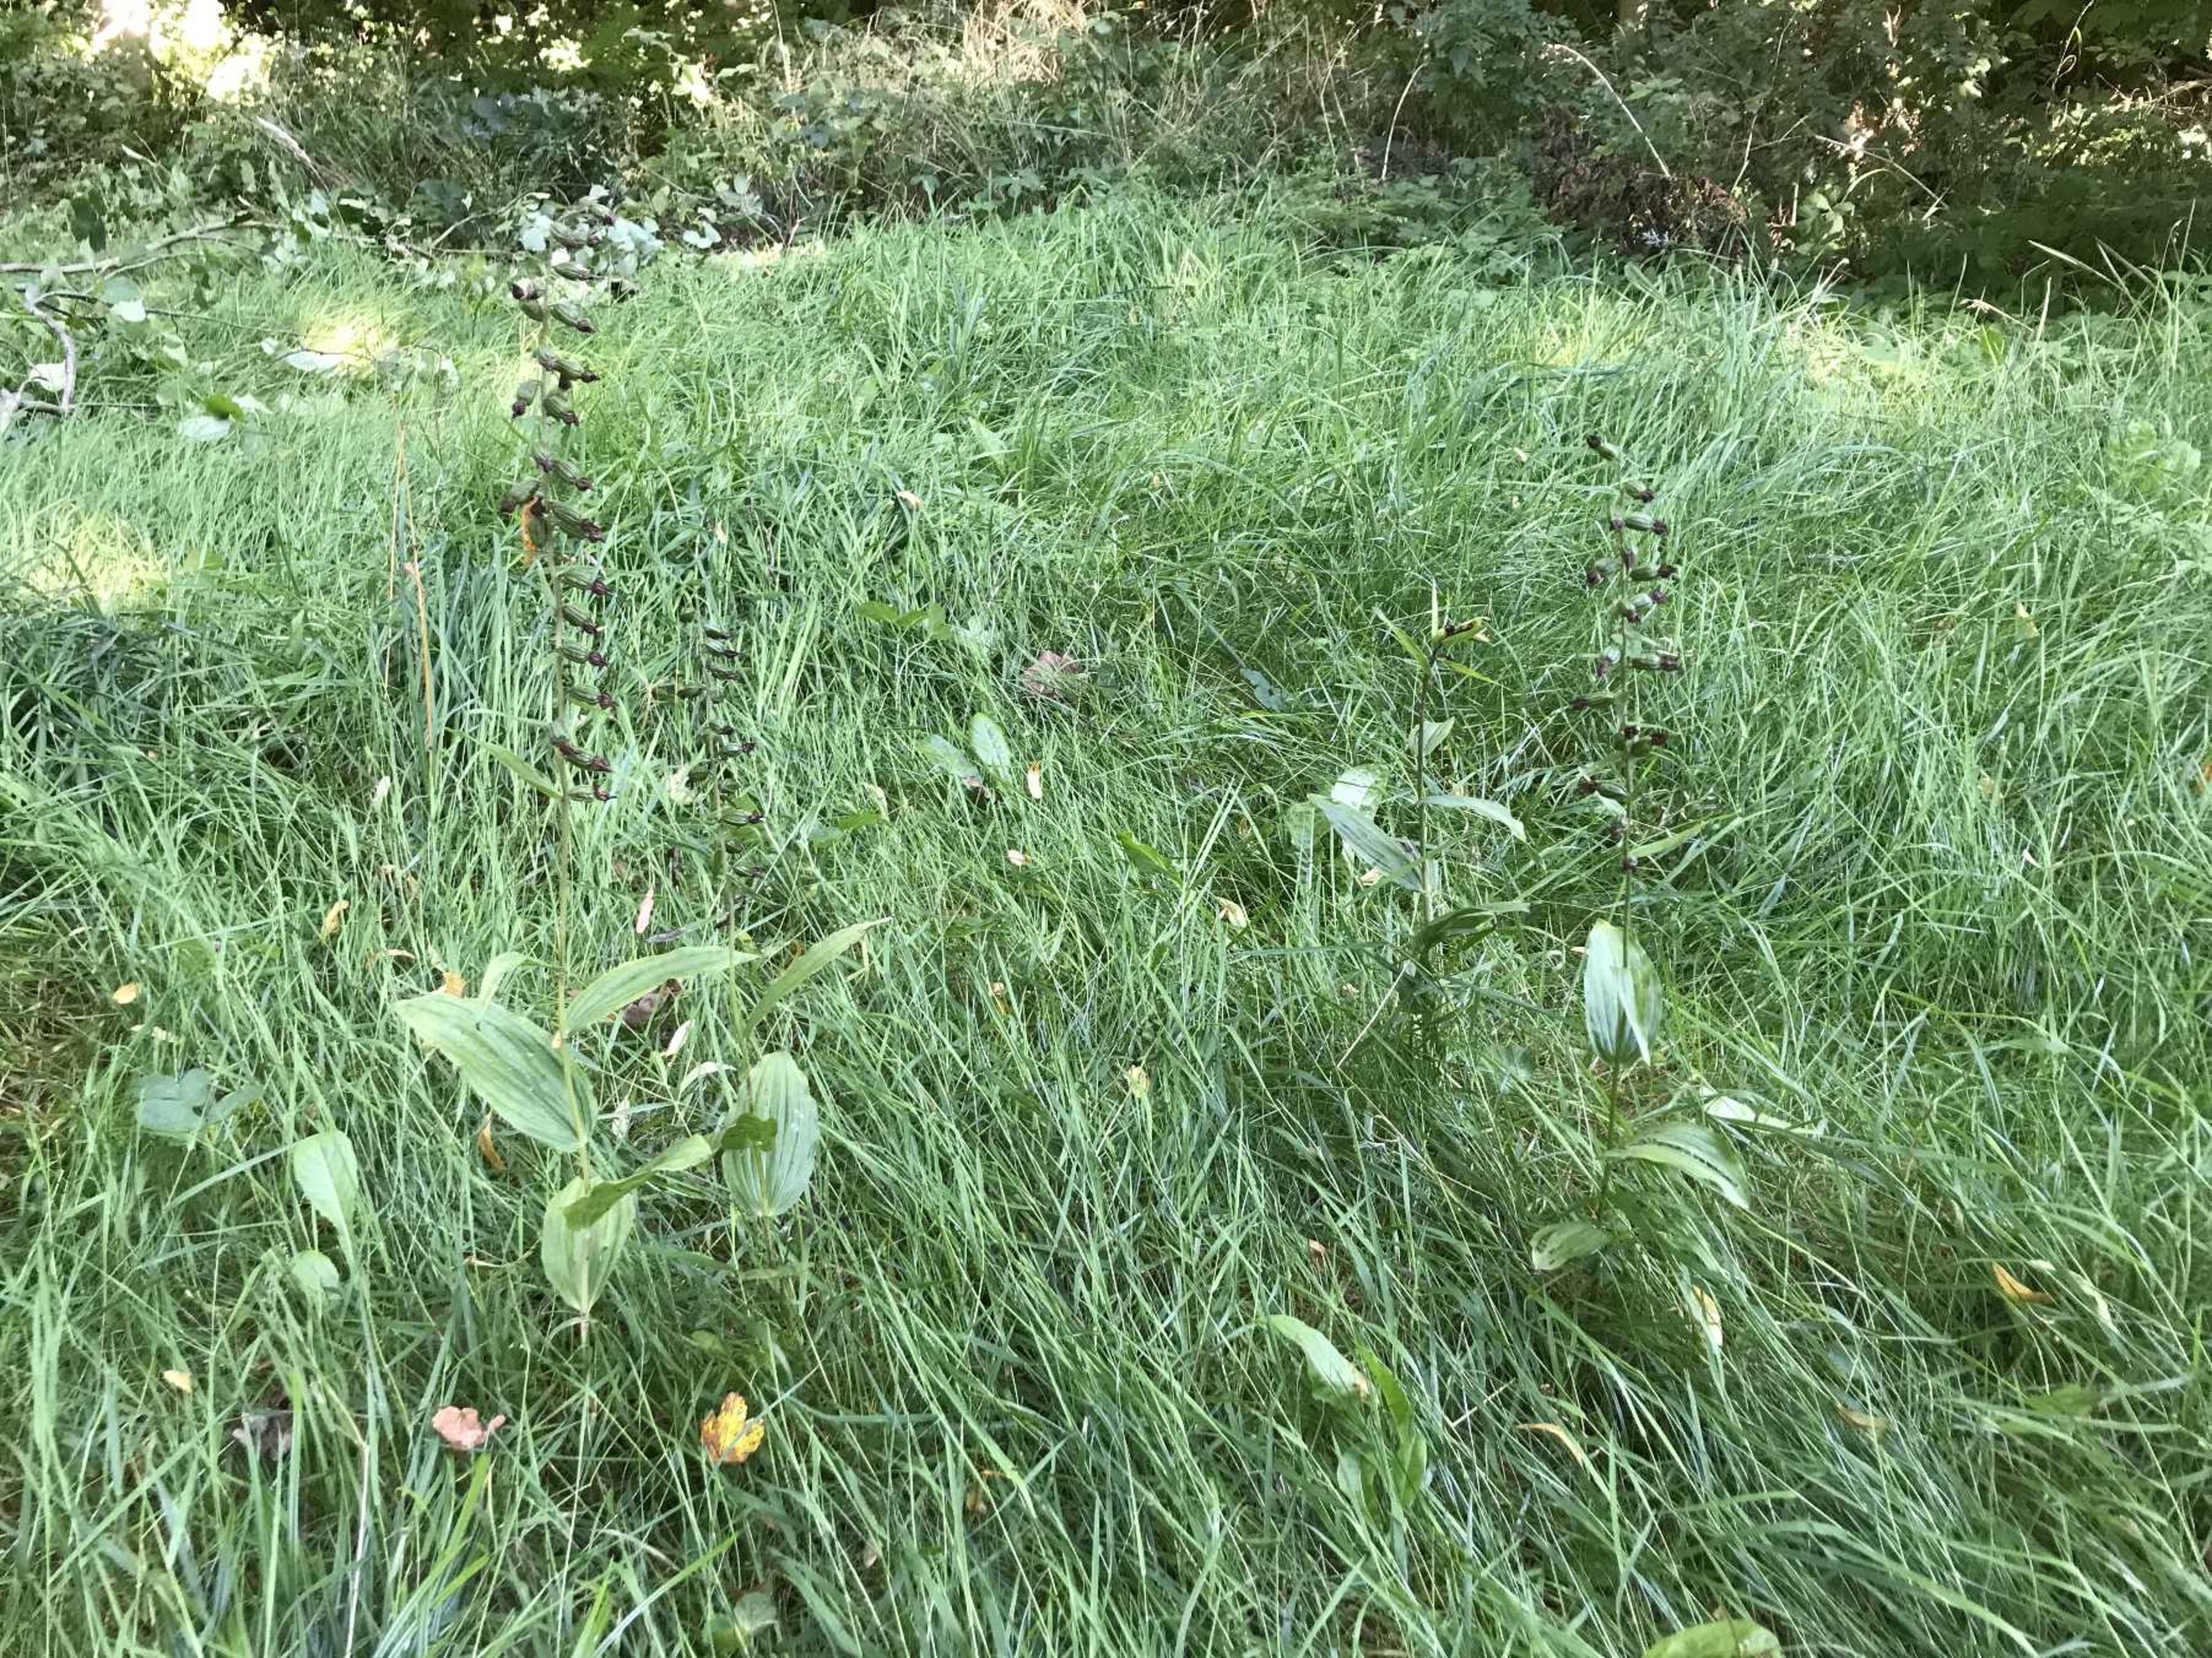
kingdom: Plantae
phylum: Tracheophyta
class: Liliopsida
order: Asparagales
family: Orchidaceae
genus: Epipactis
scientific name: Epipactis helleborine
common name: Skov-hullæbe
